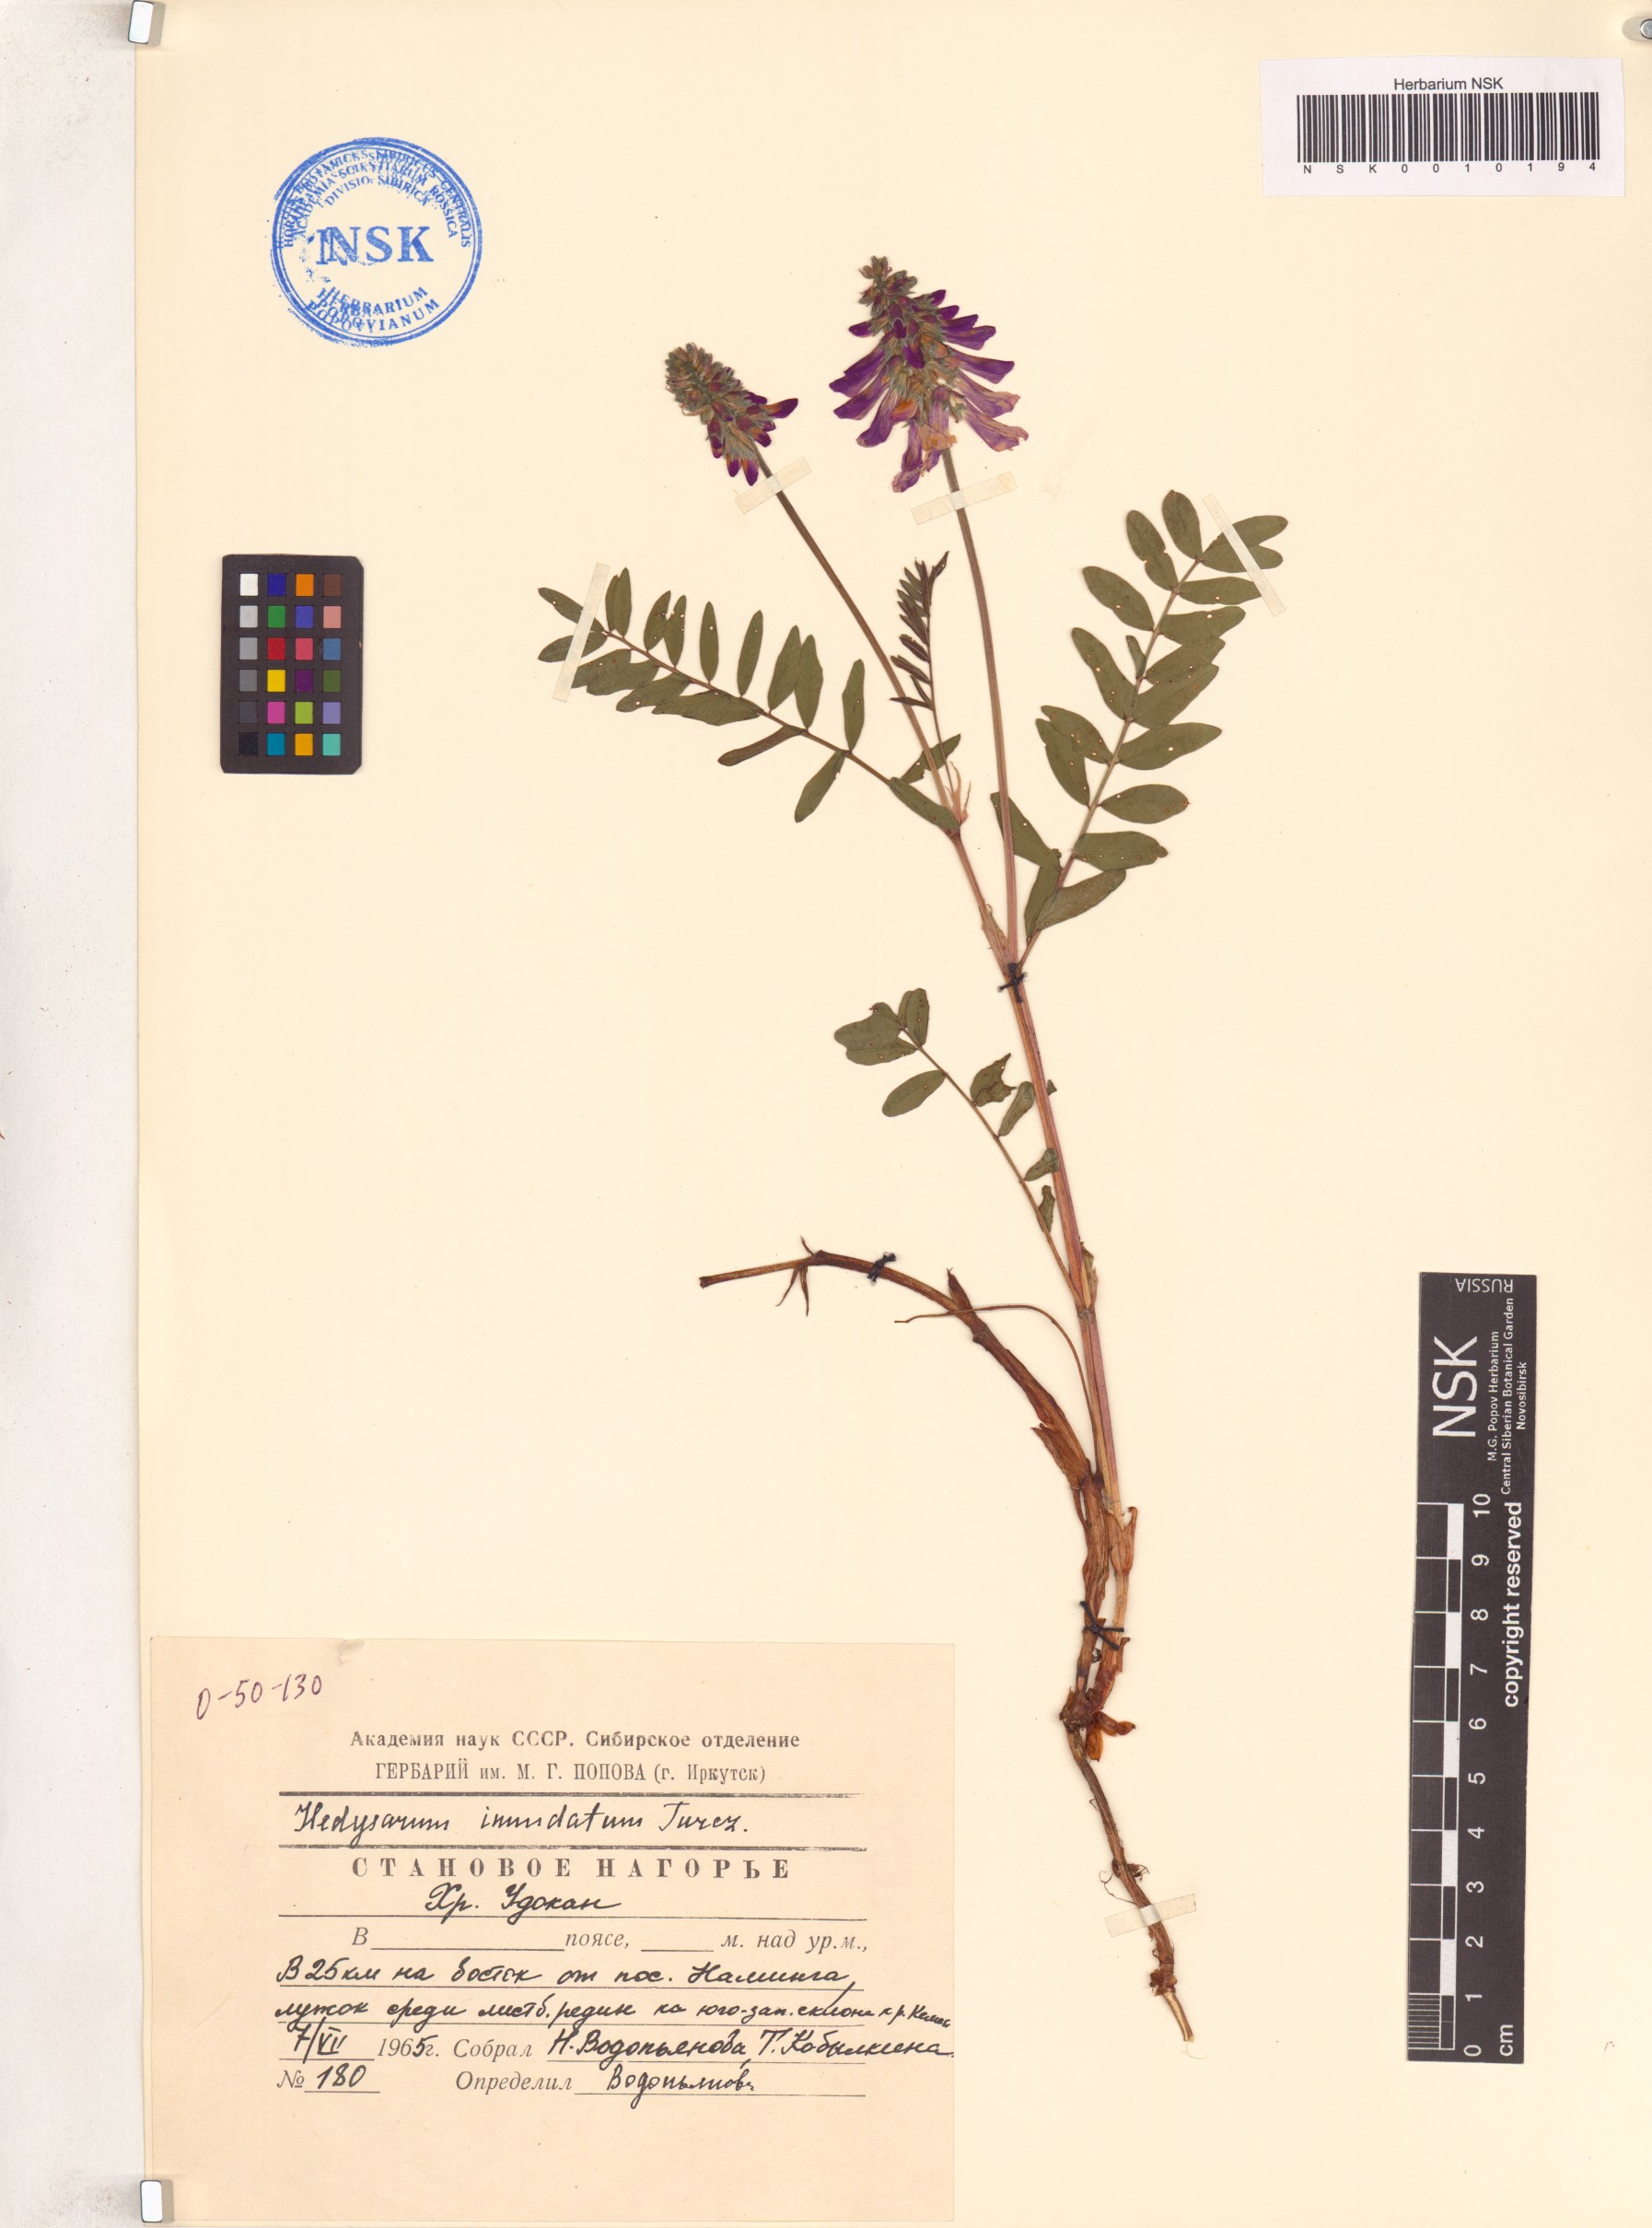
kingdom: Plantae
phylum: Tracheophyta
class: Magnoliopsida
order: Fabales
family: Fabaceae
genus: Hedysarum
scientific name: Hedysarum inundatum
